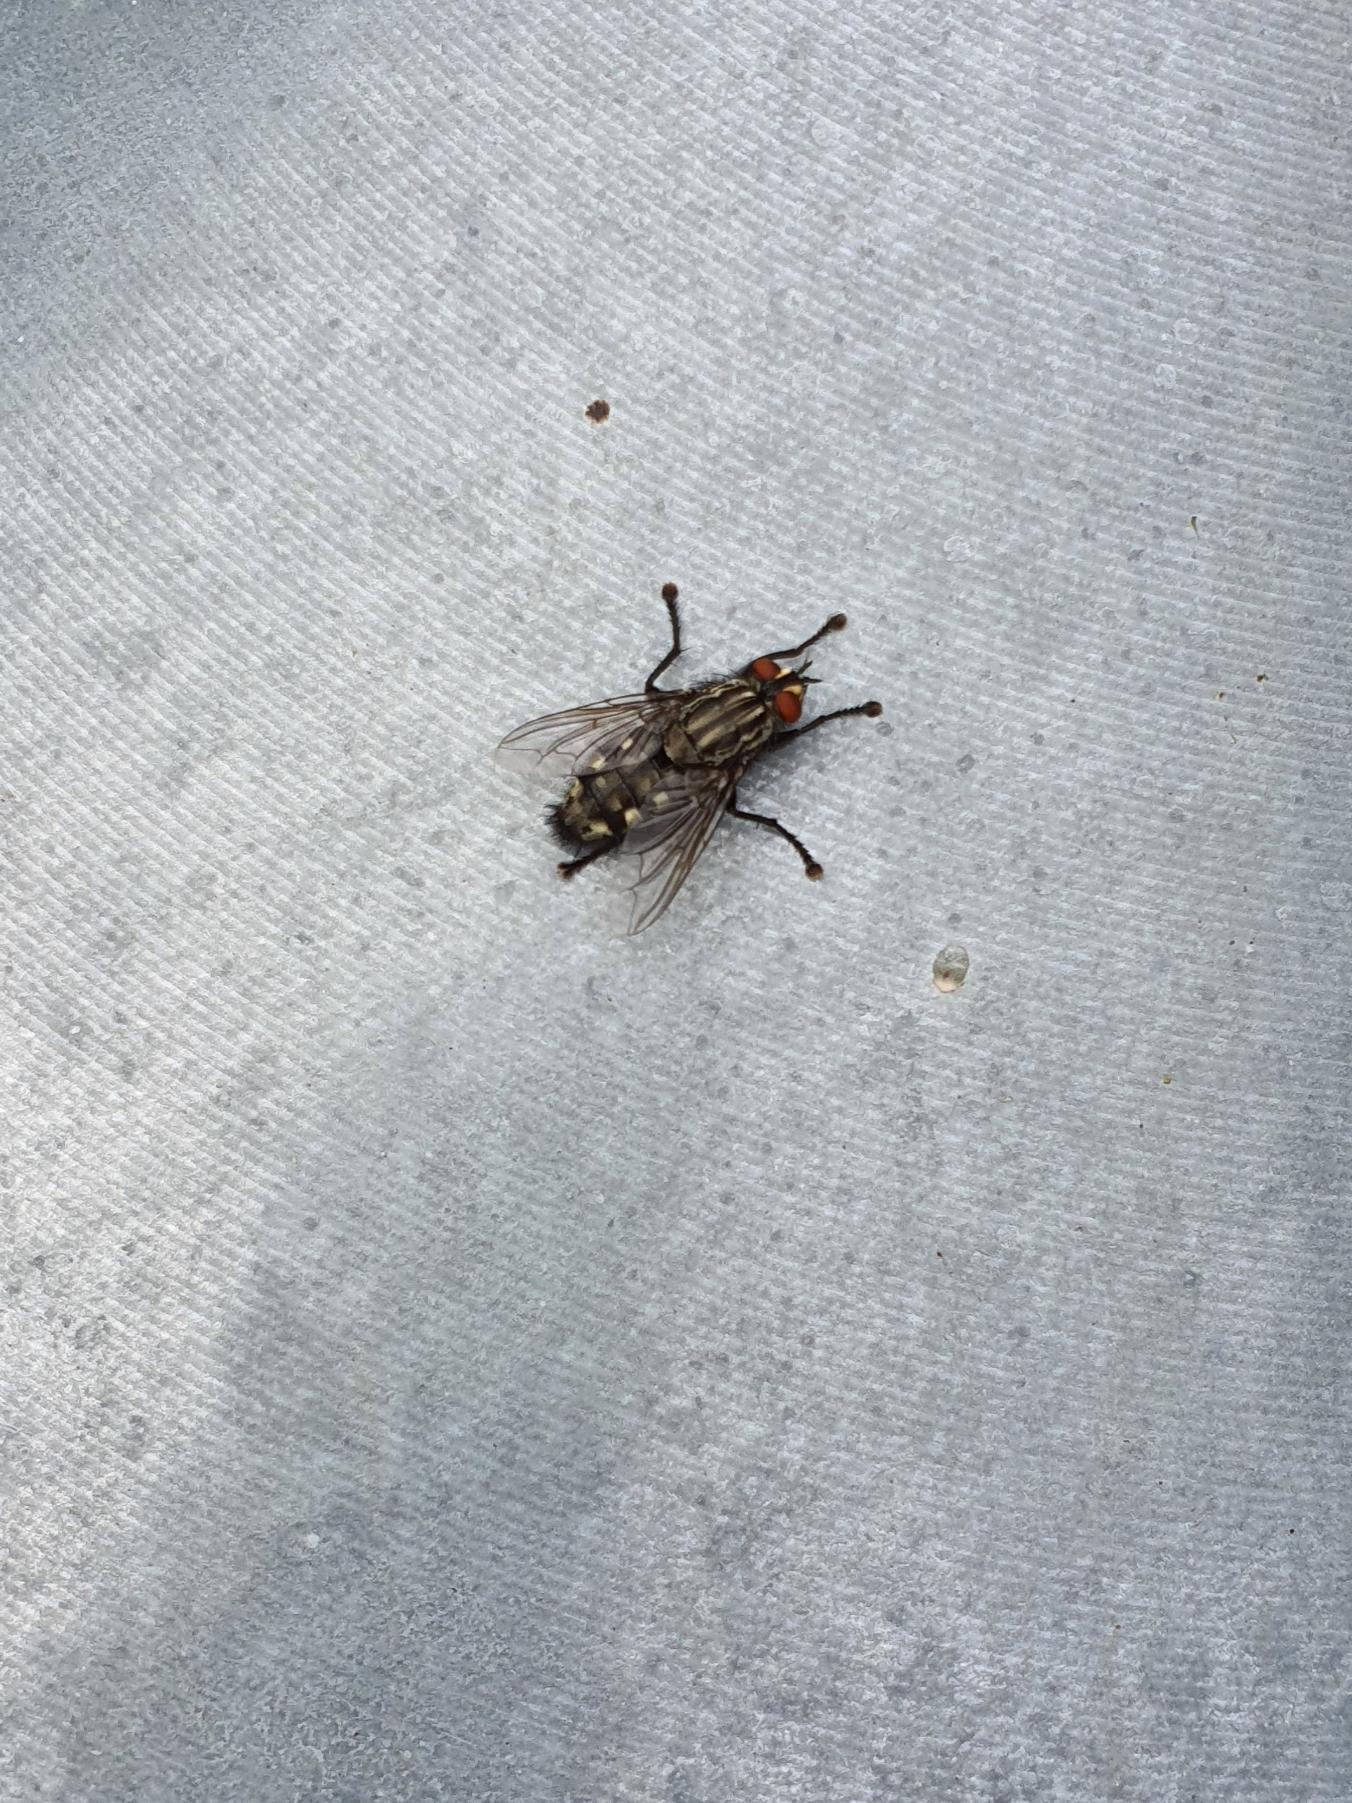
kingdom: Animalia
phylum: Arthropoda
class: Insecta
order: Diptera
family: Sarcophagidae
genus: Sarcophaga
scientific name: Sarcophaga
